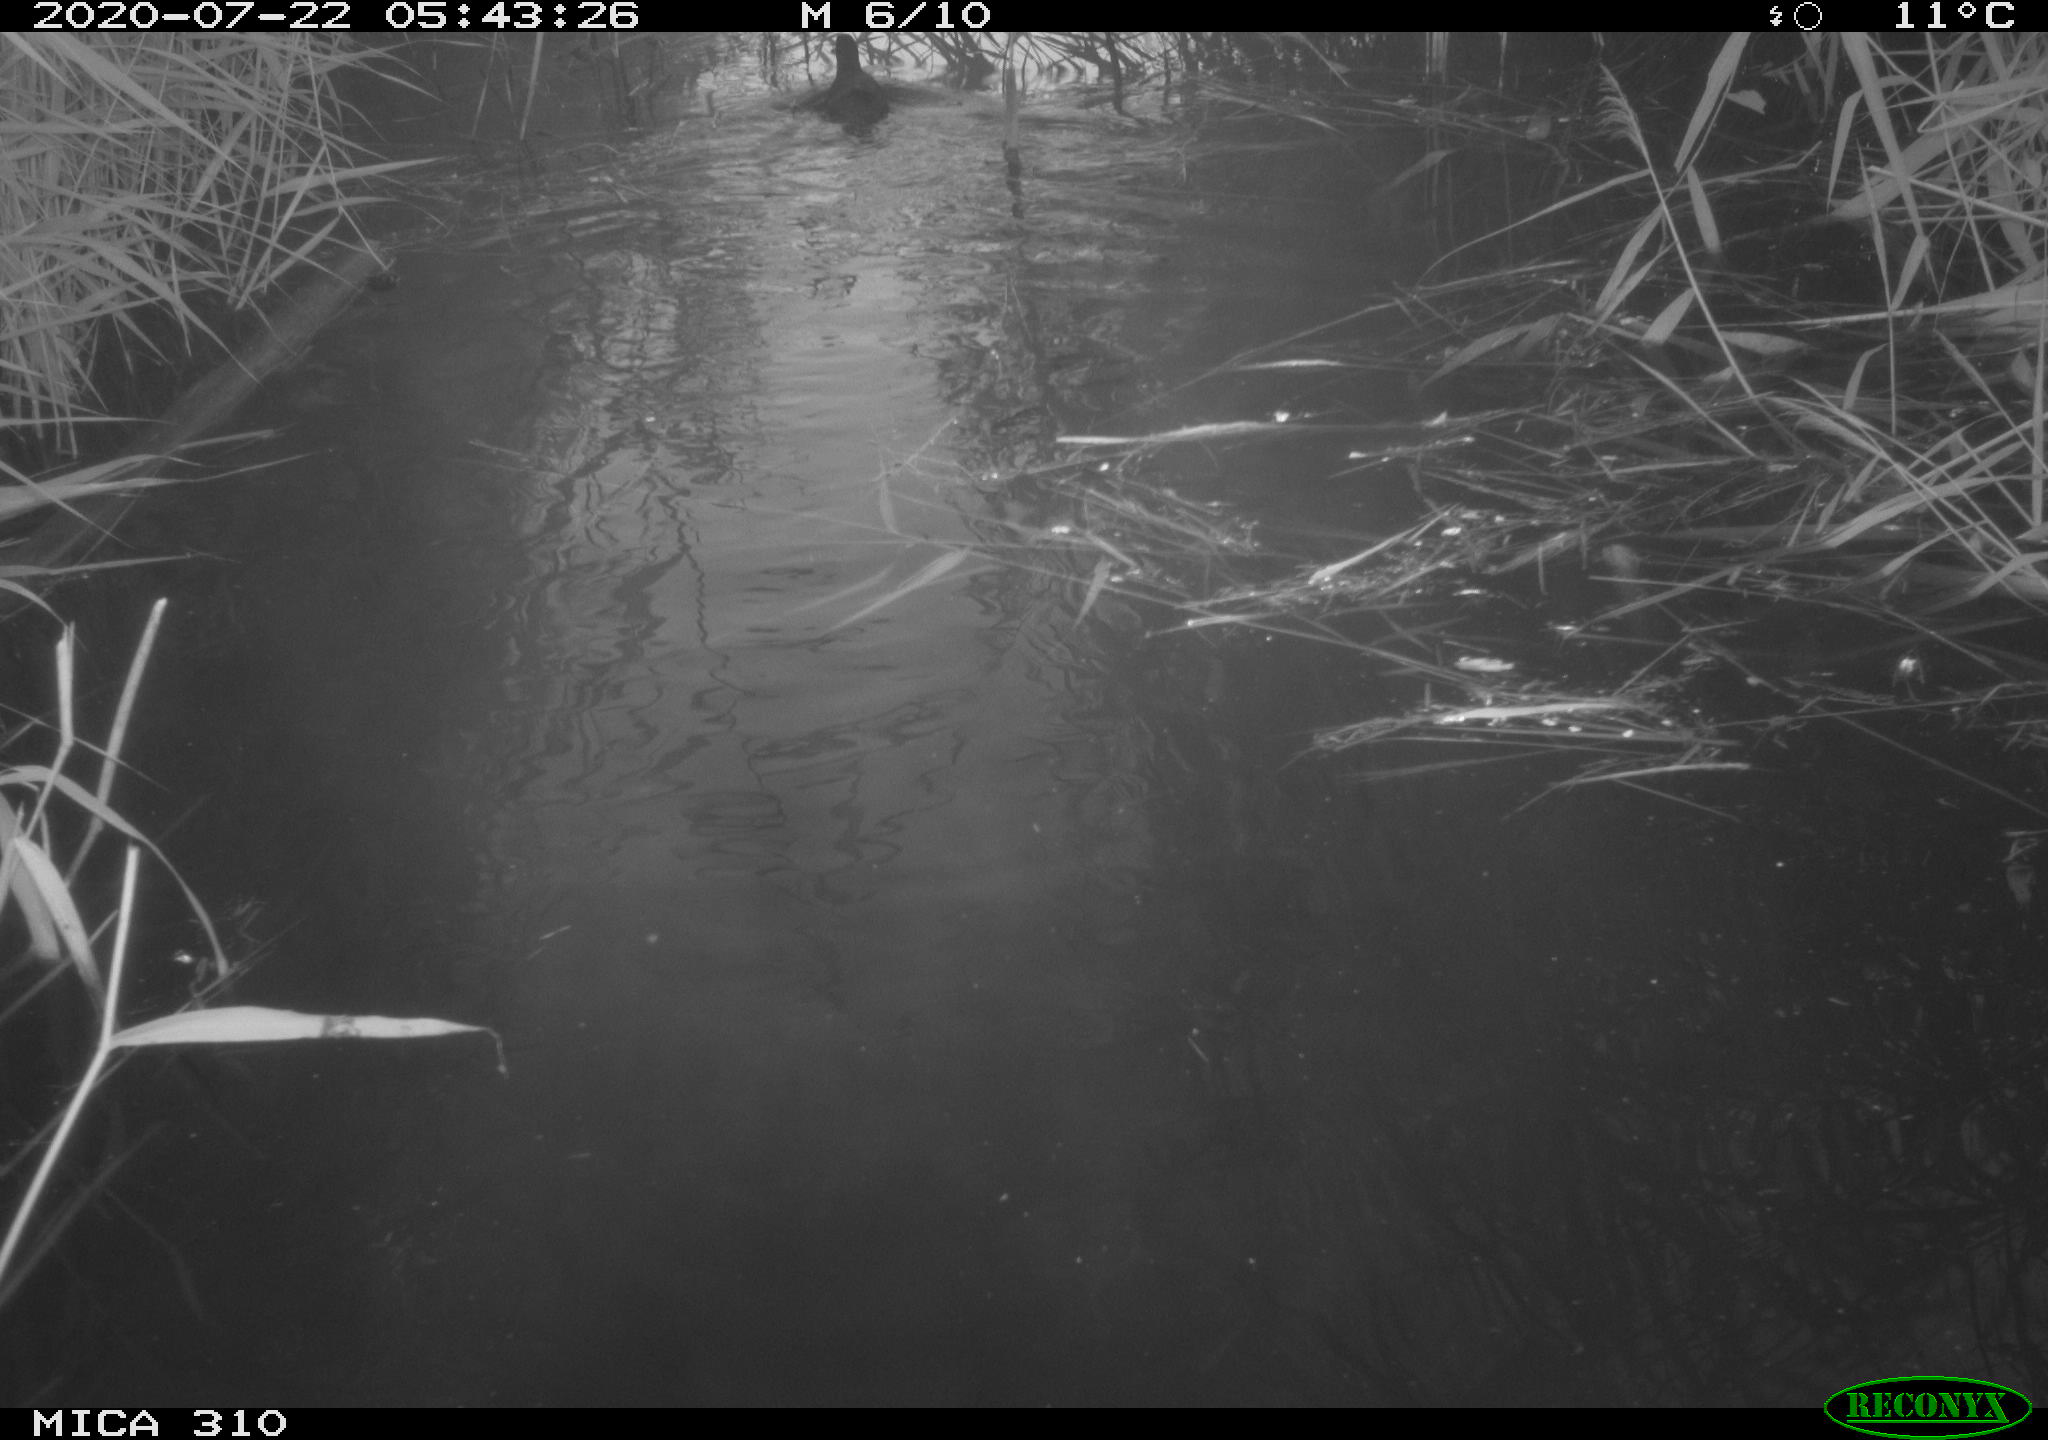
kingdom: Animalia
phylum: Chordata
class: Aves
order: Gruiformes
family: Rallidae
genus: Fulica
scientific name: Fulica atra
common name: Eurasian coot
